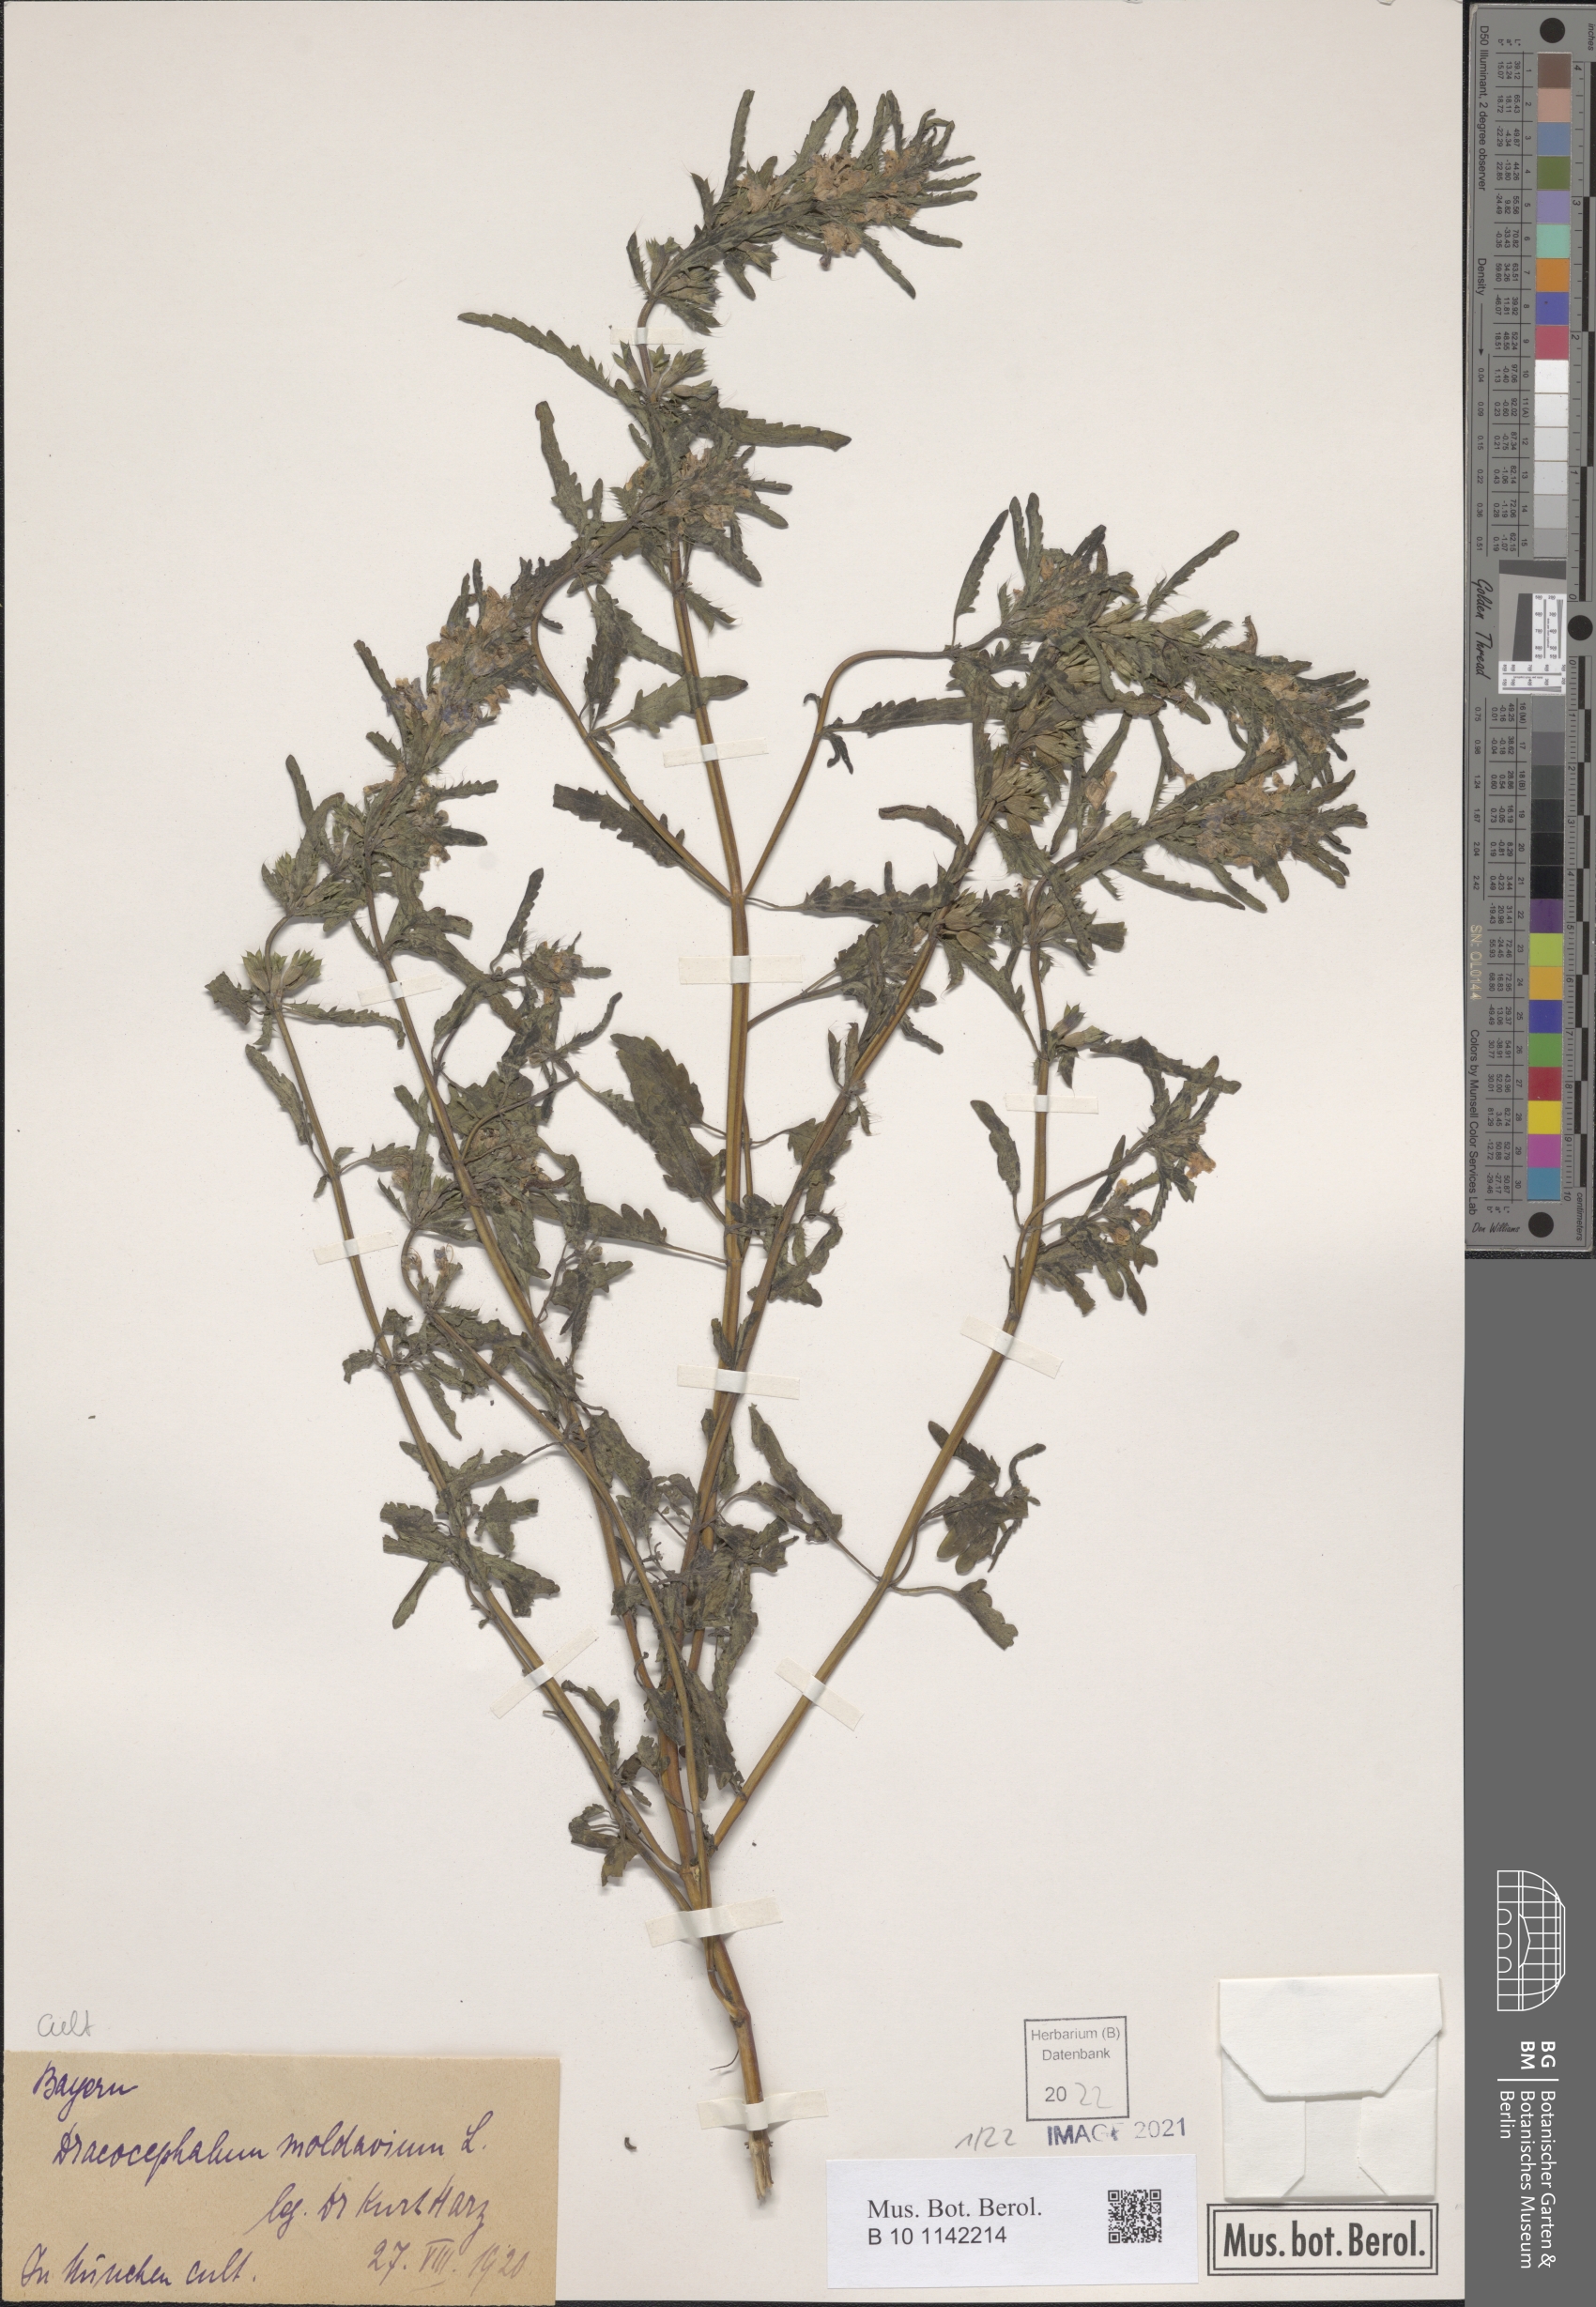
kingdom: Plantae
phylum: Tracheophyta
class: Magnoliopsida
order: Lamiales
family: Lamiaceae
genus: Dracocephalum
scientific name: Dracocephalum moldavica
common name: Moldavian dragonhead
